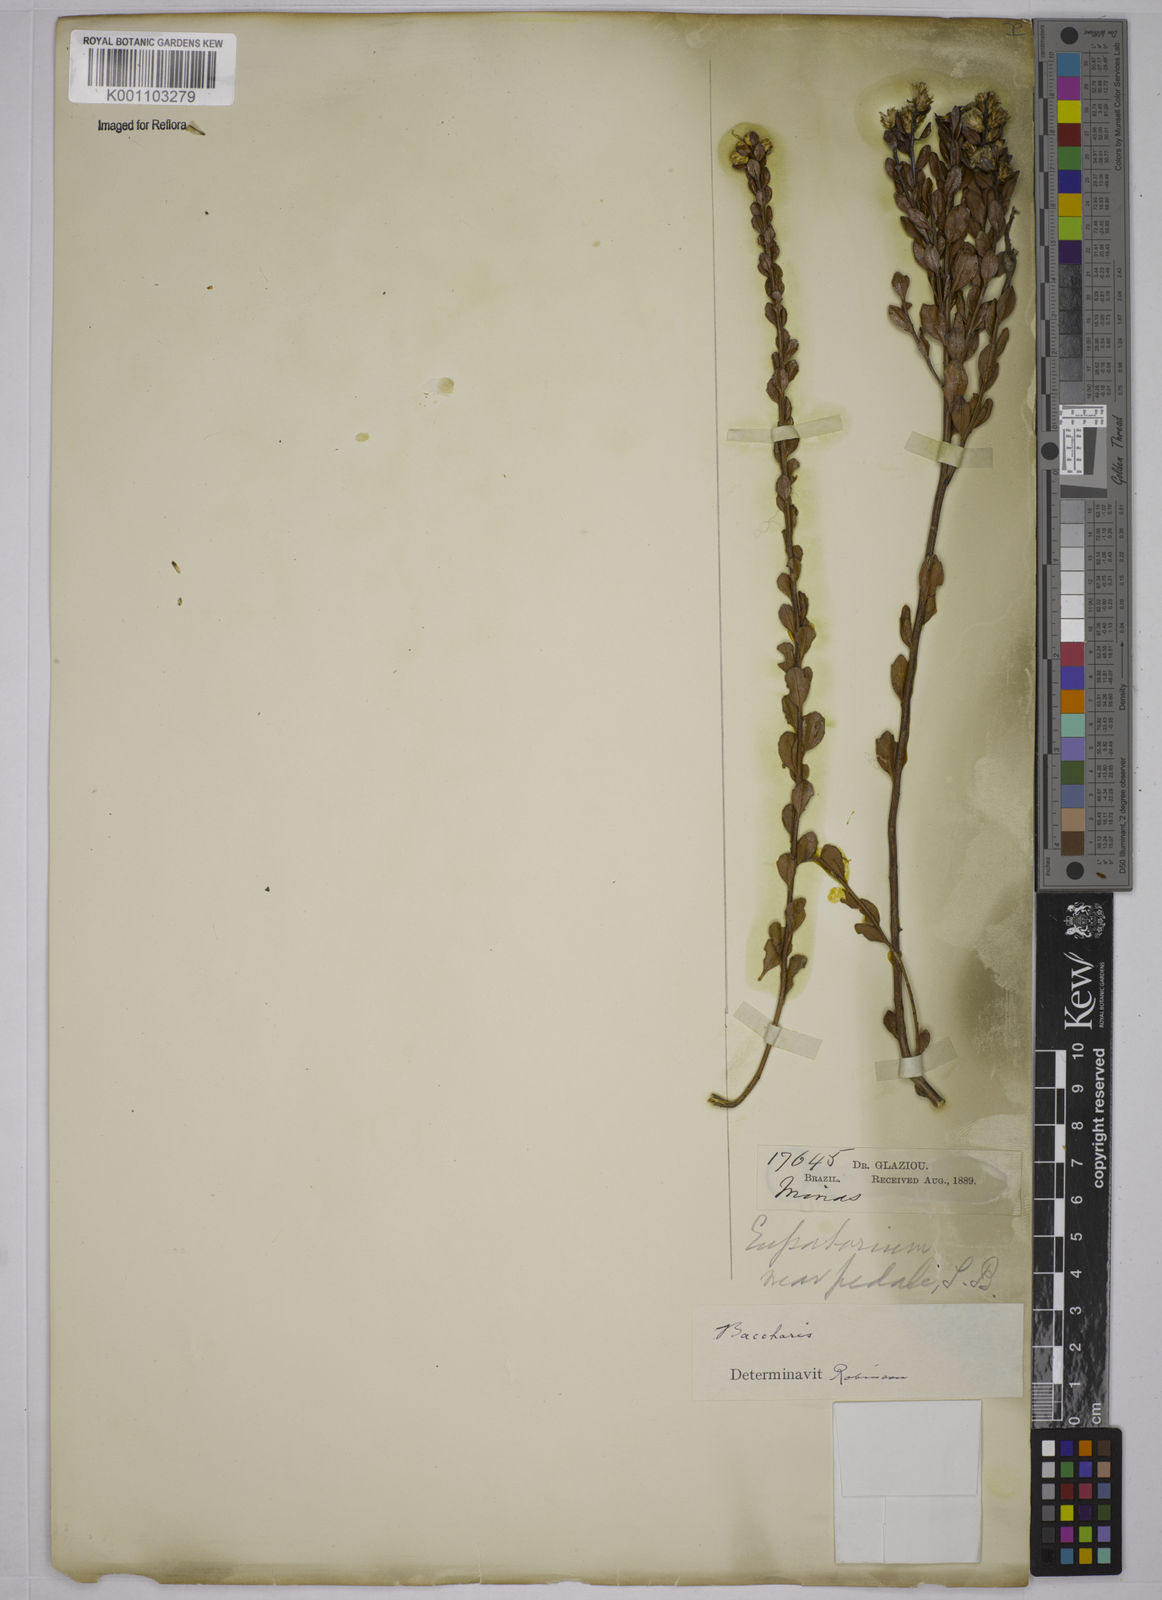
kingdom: Plantae
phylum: Tracheophyta
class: Magnoliopsida
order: Asterales
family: Asteraceae
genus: Baccharis
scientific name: Baccharis
